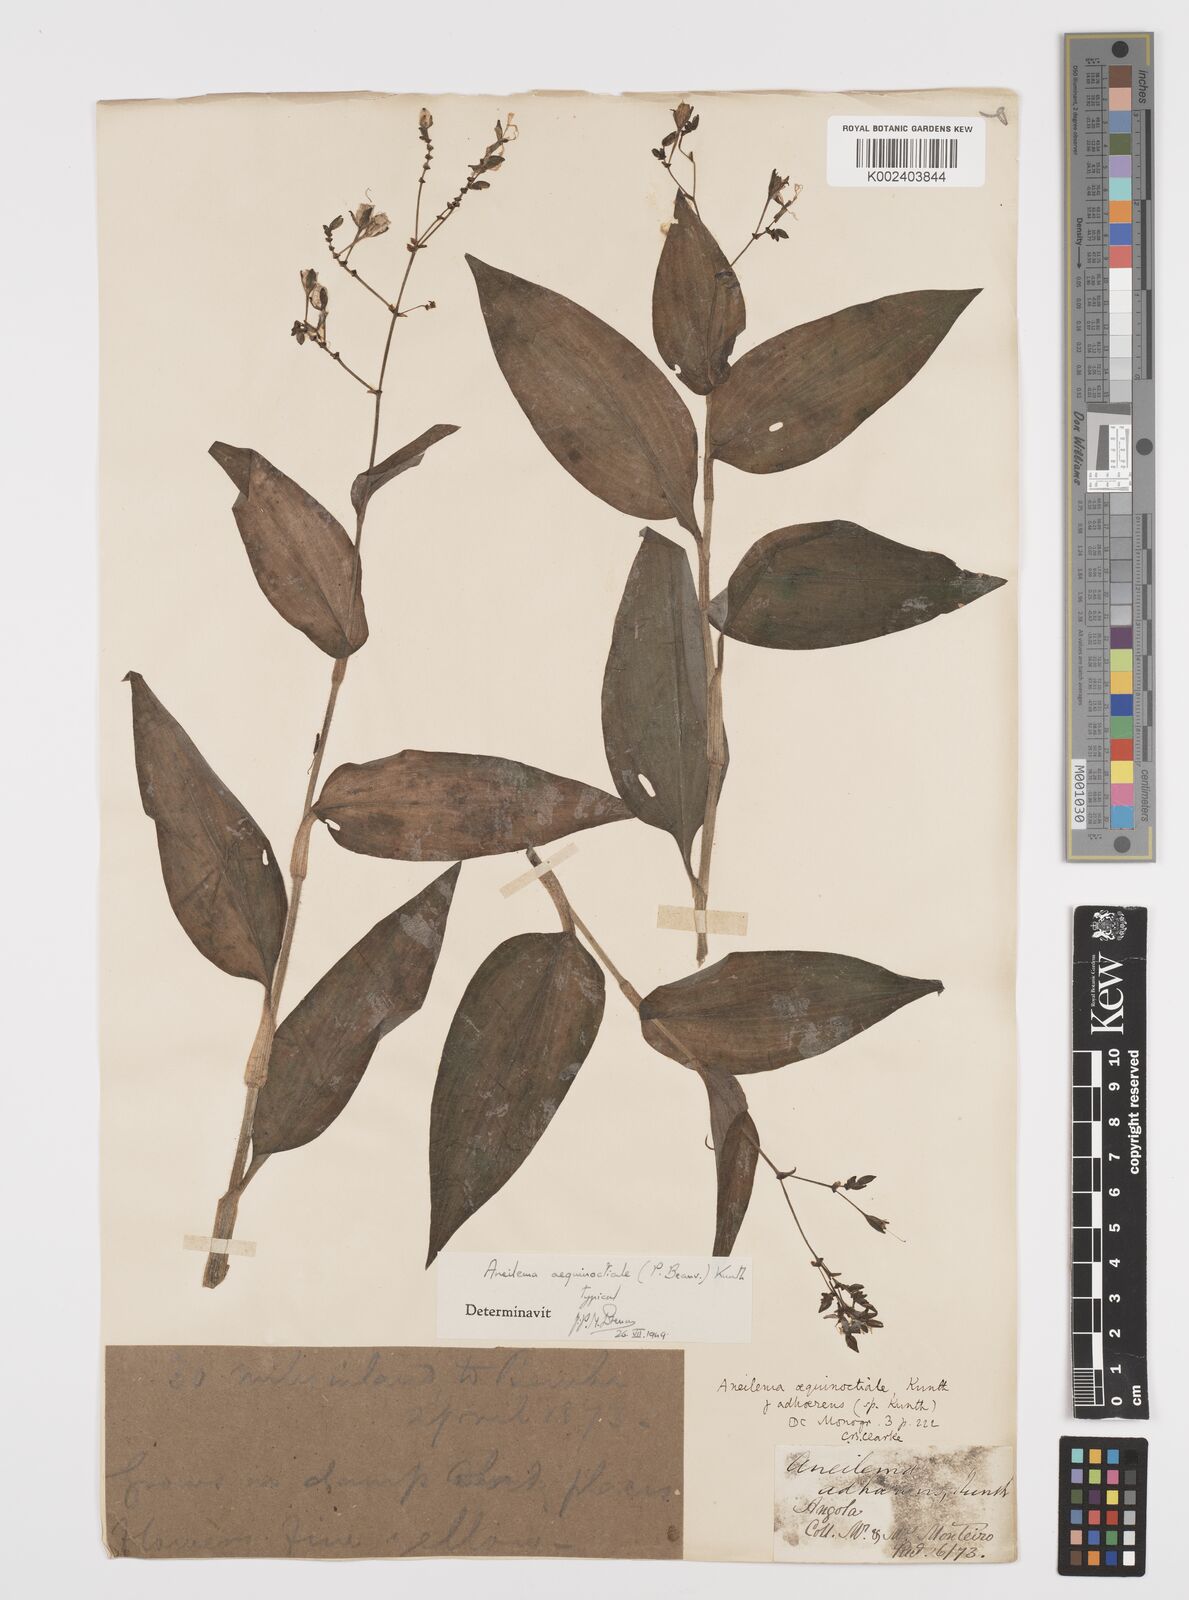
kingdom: Plantae
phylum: Tracheophyta
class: Liliopsida
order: Commelinales
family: Commelinaceae
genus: Aneilema
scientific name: Aneilema aequinoctiale
